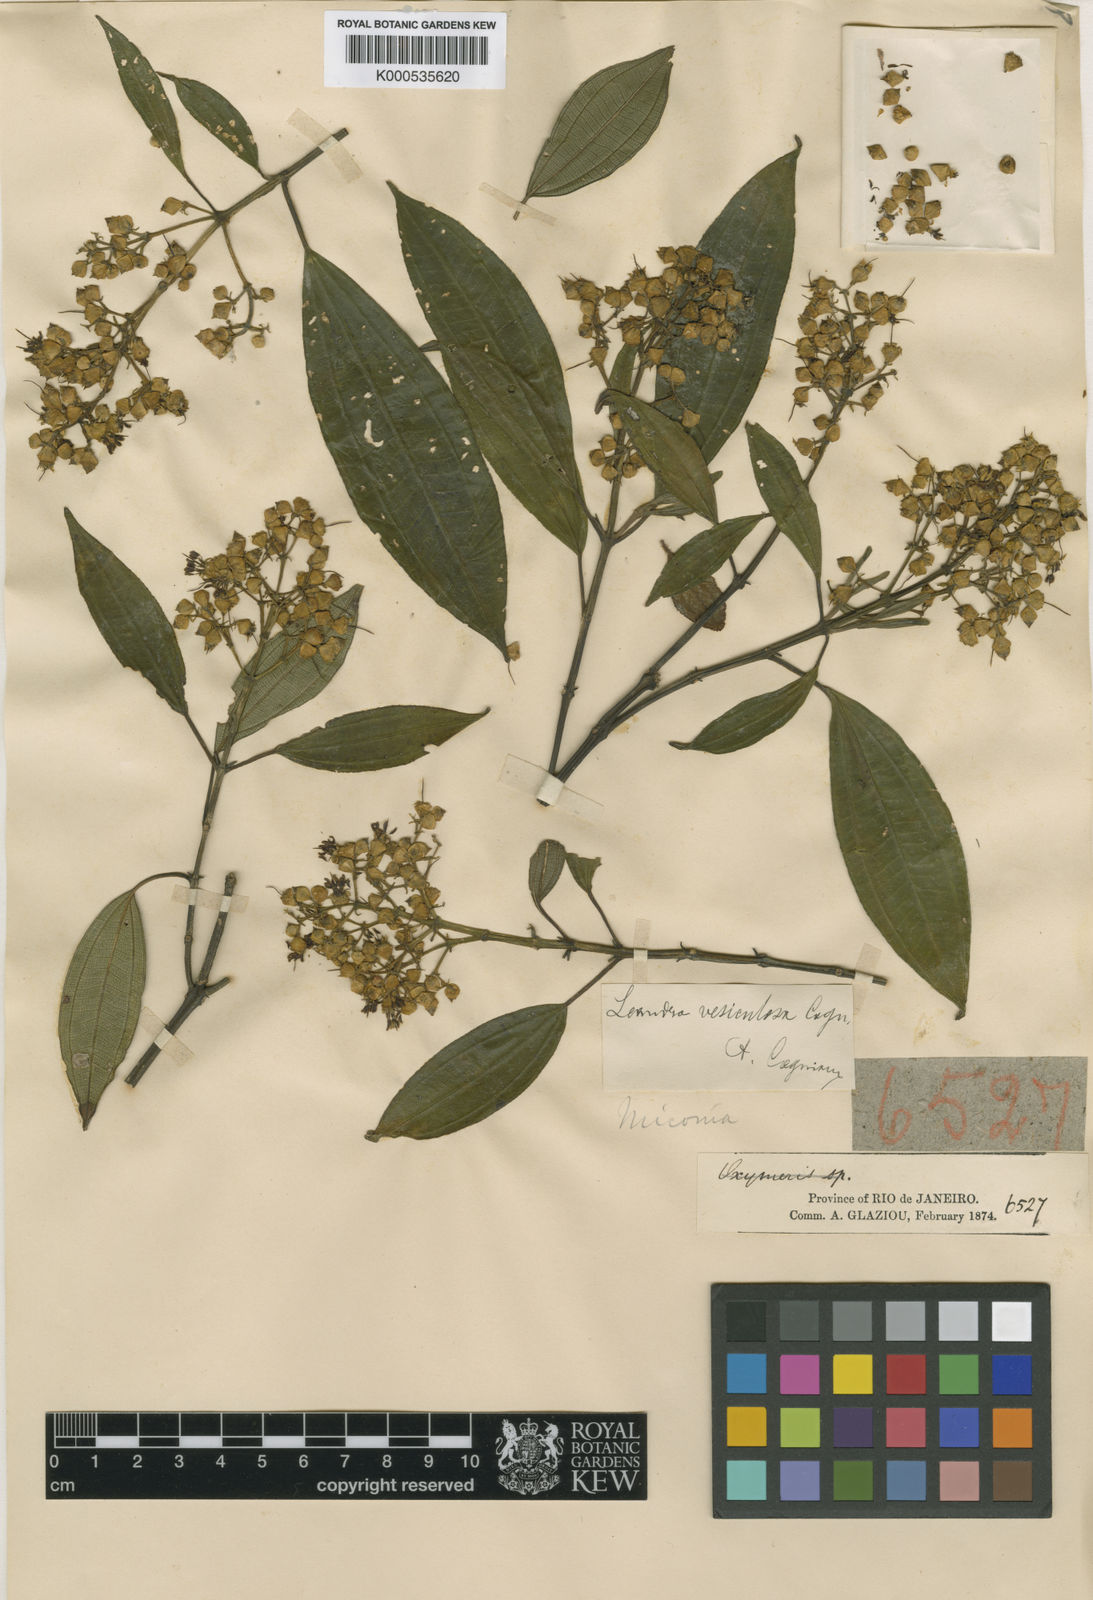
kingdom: Plantae
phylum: Tracheophyta
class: Magnoliopsida
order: Myrtales
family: Melastomataceae
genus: Miconia
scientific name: Miconia vesiculosa
